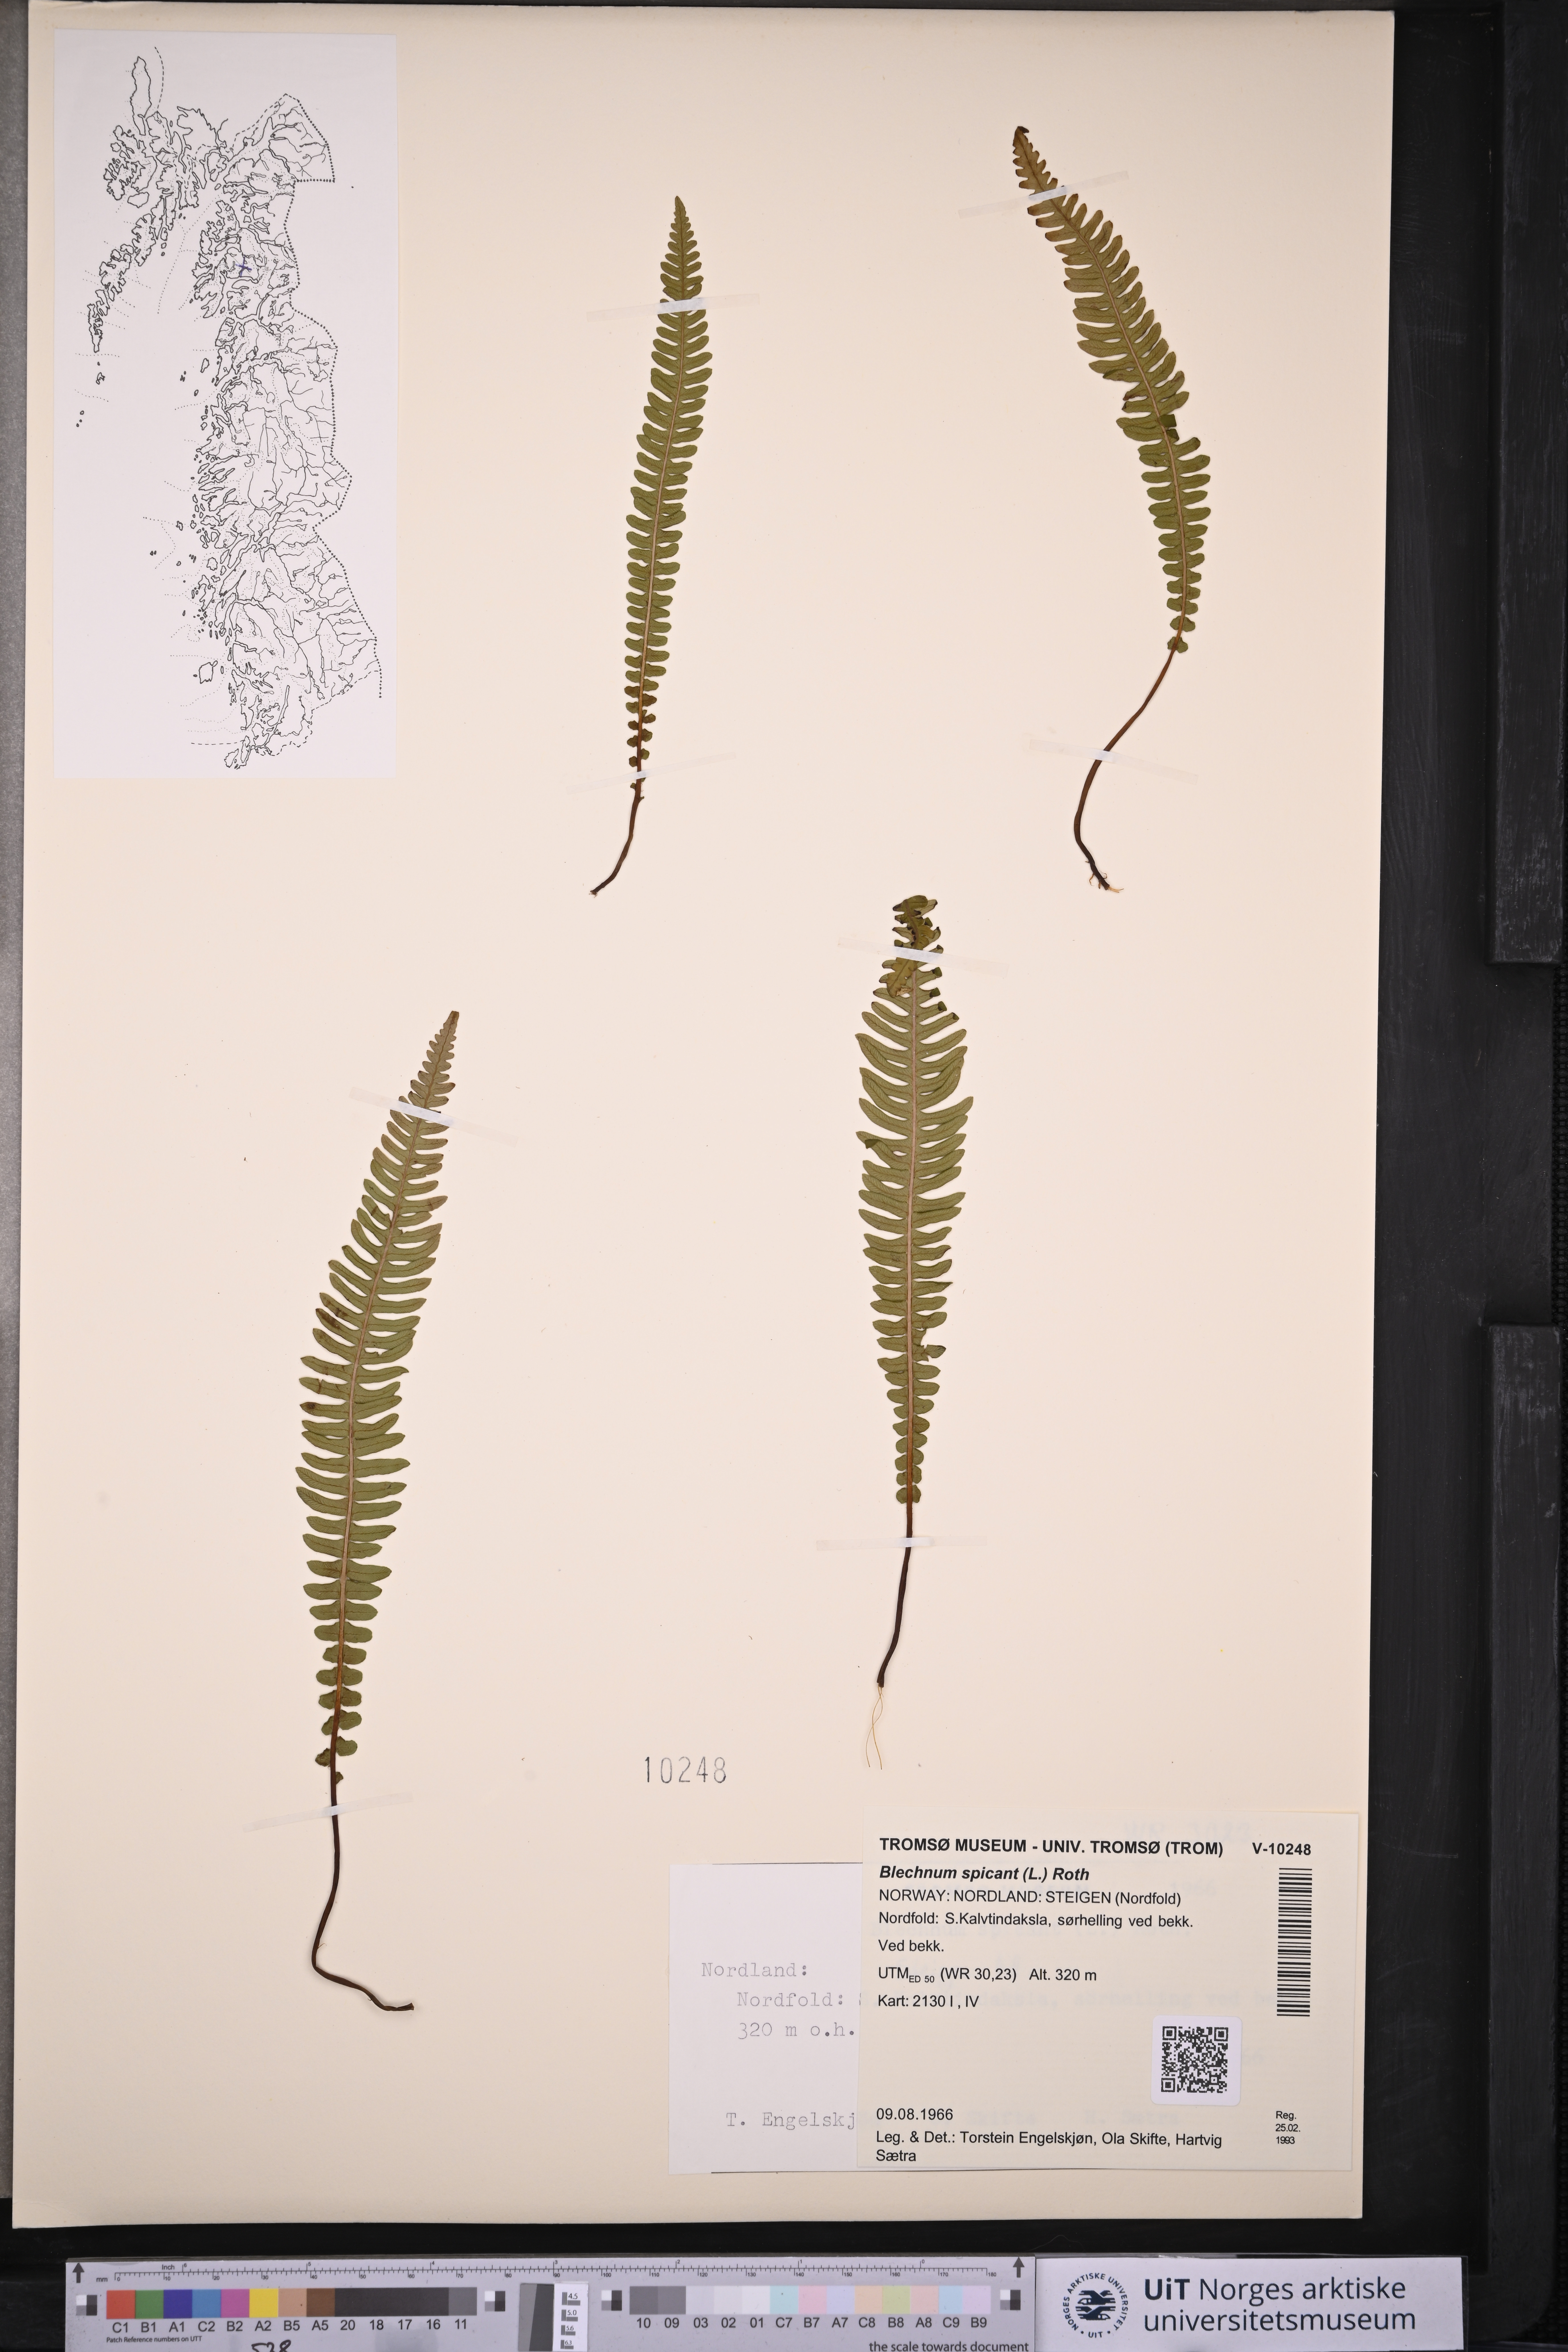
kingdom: Plantae
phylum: Tracheophyta
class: Polypodiopsida
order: Polypodiales
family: Blechnaceae
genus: Struthiopteris
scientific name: Struthiopteris spicant
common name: Deer fern
